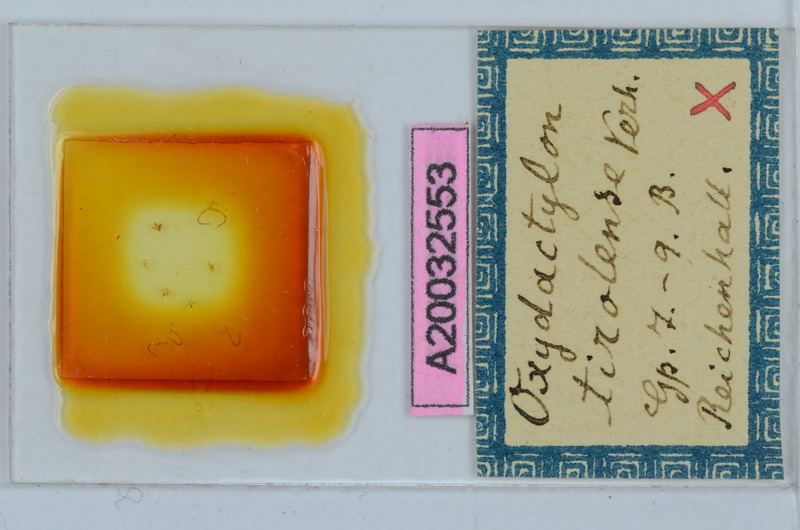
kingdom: Animalia
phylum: Arthropoda
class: Diplopoda
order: Chordeumatida
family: Craspedosomatidae
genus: Oxydactylon
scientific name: Oxydactylon tirolense
